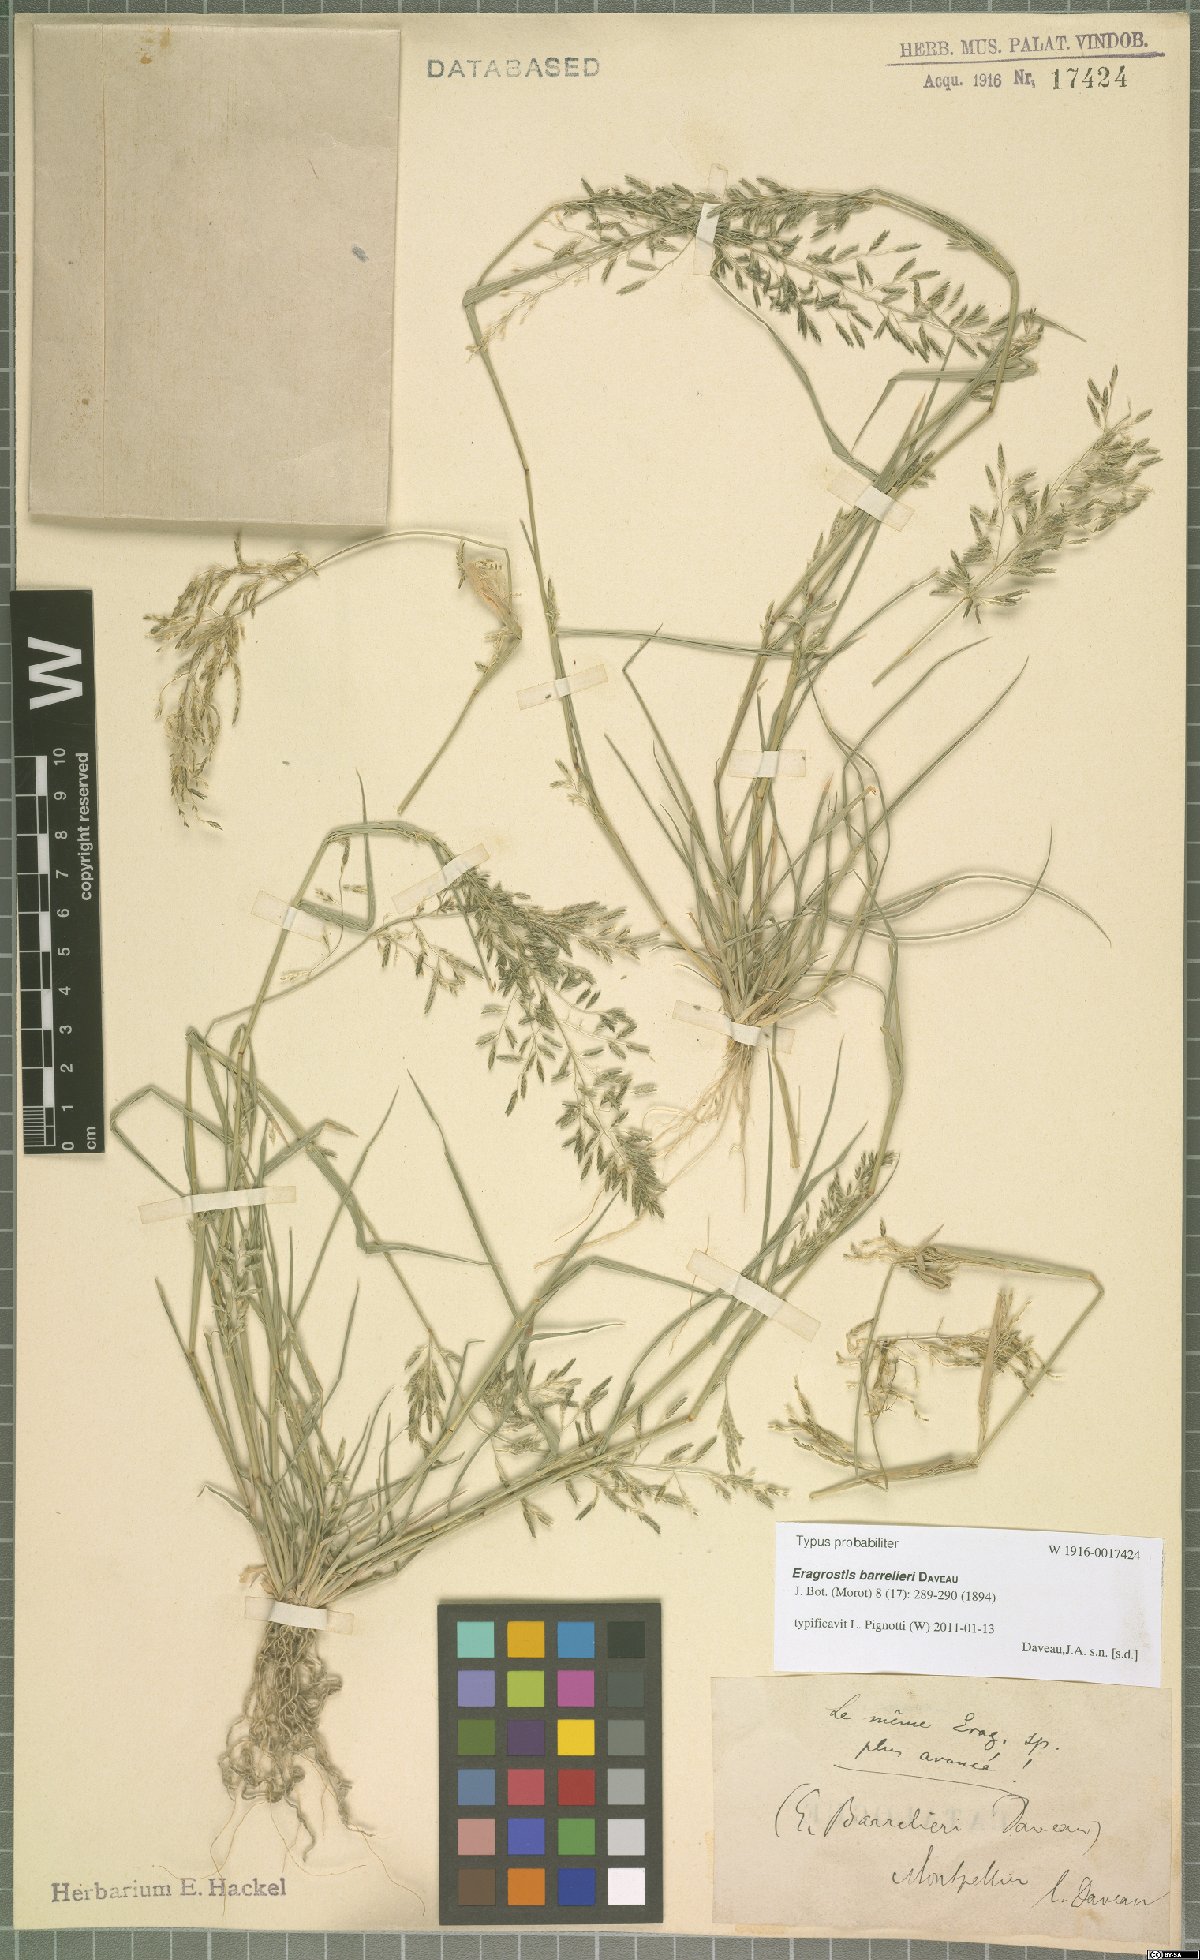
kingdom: Plantae
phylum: Tracheophyta
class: Liliopsida
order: Poales
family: Poaceae
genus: Eragrostis
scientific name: Eragrostis barrelieri
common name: Mediterranean lovegrass
